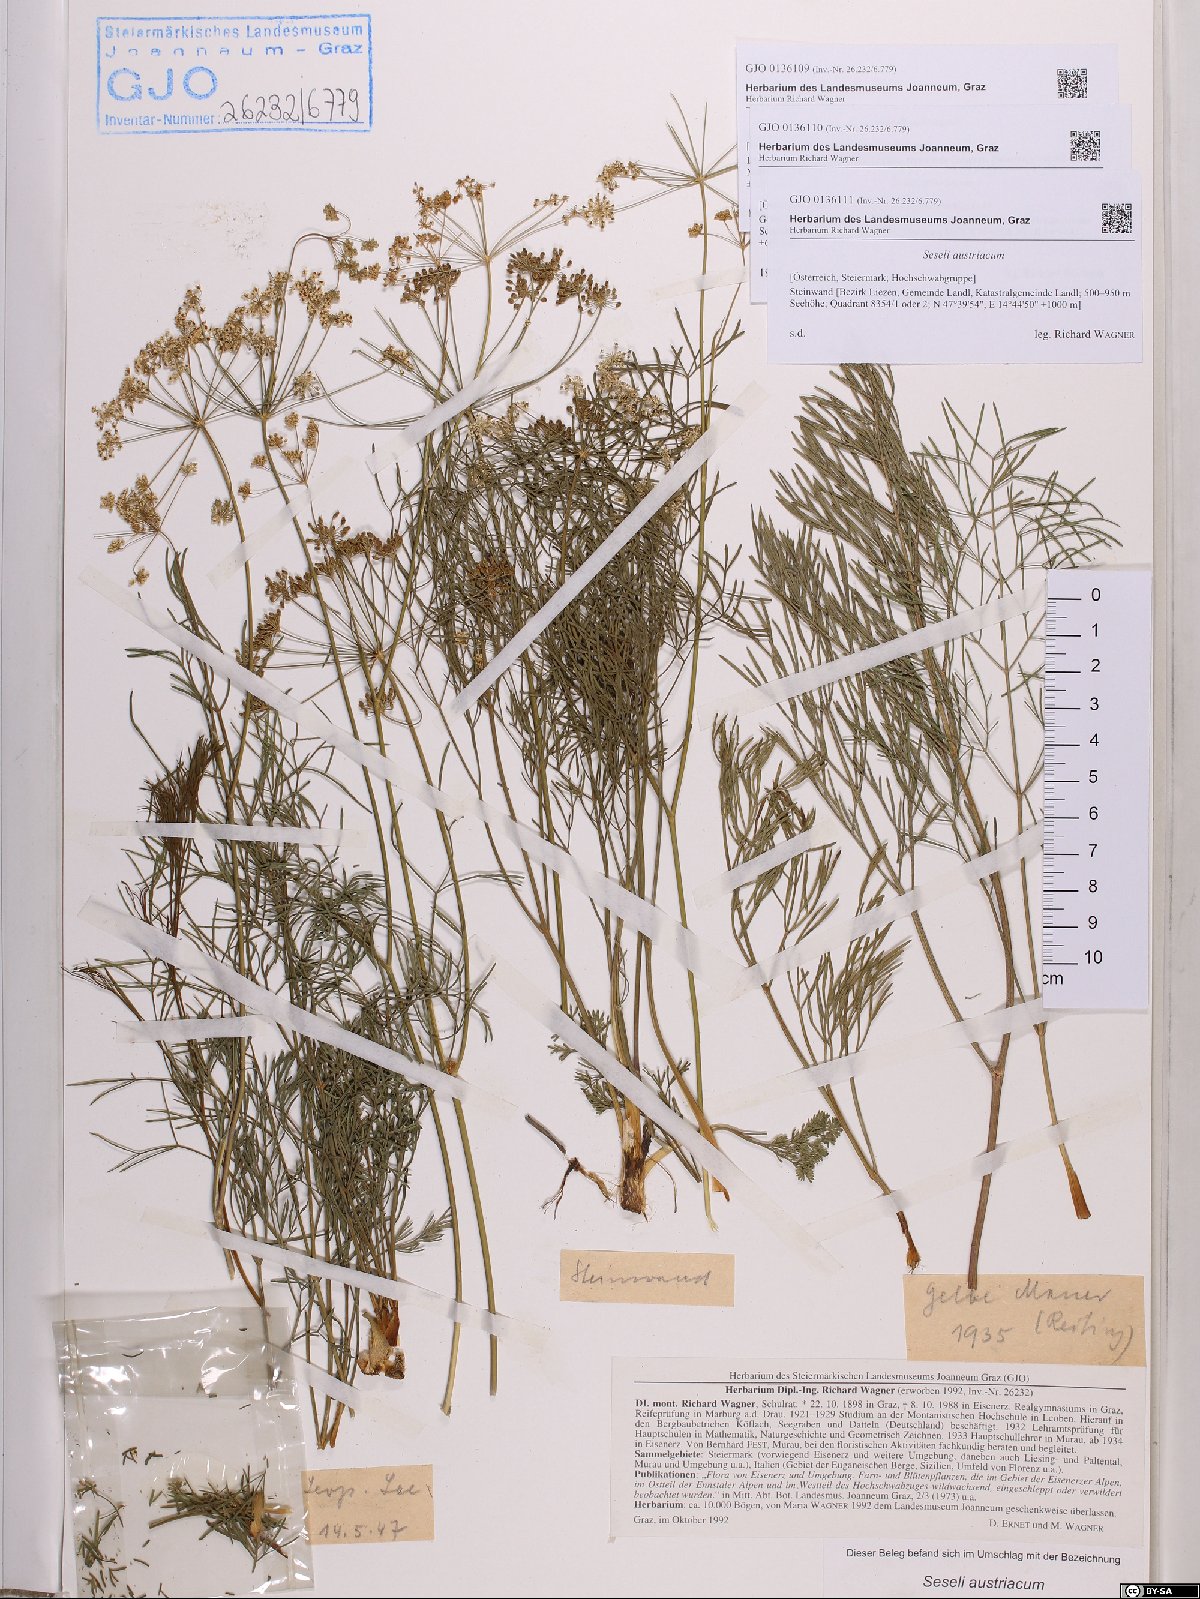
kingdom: Plantae
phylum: Tracheophyta
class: Magnoliopsida
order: Apiales
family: Apiaceae
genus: Seseli
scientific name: Seseli austriacum
